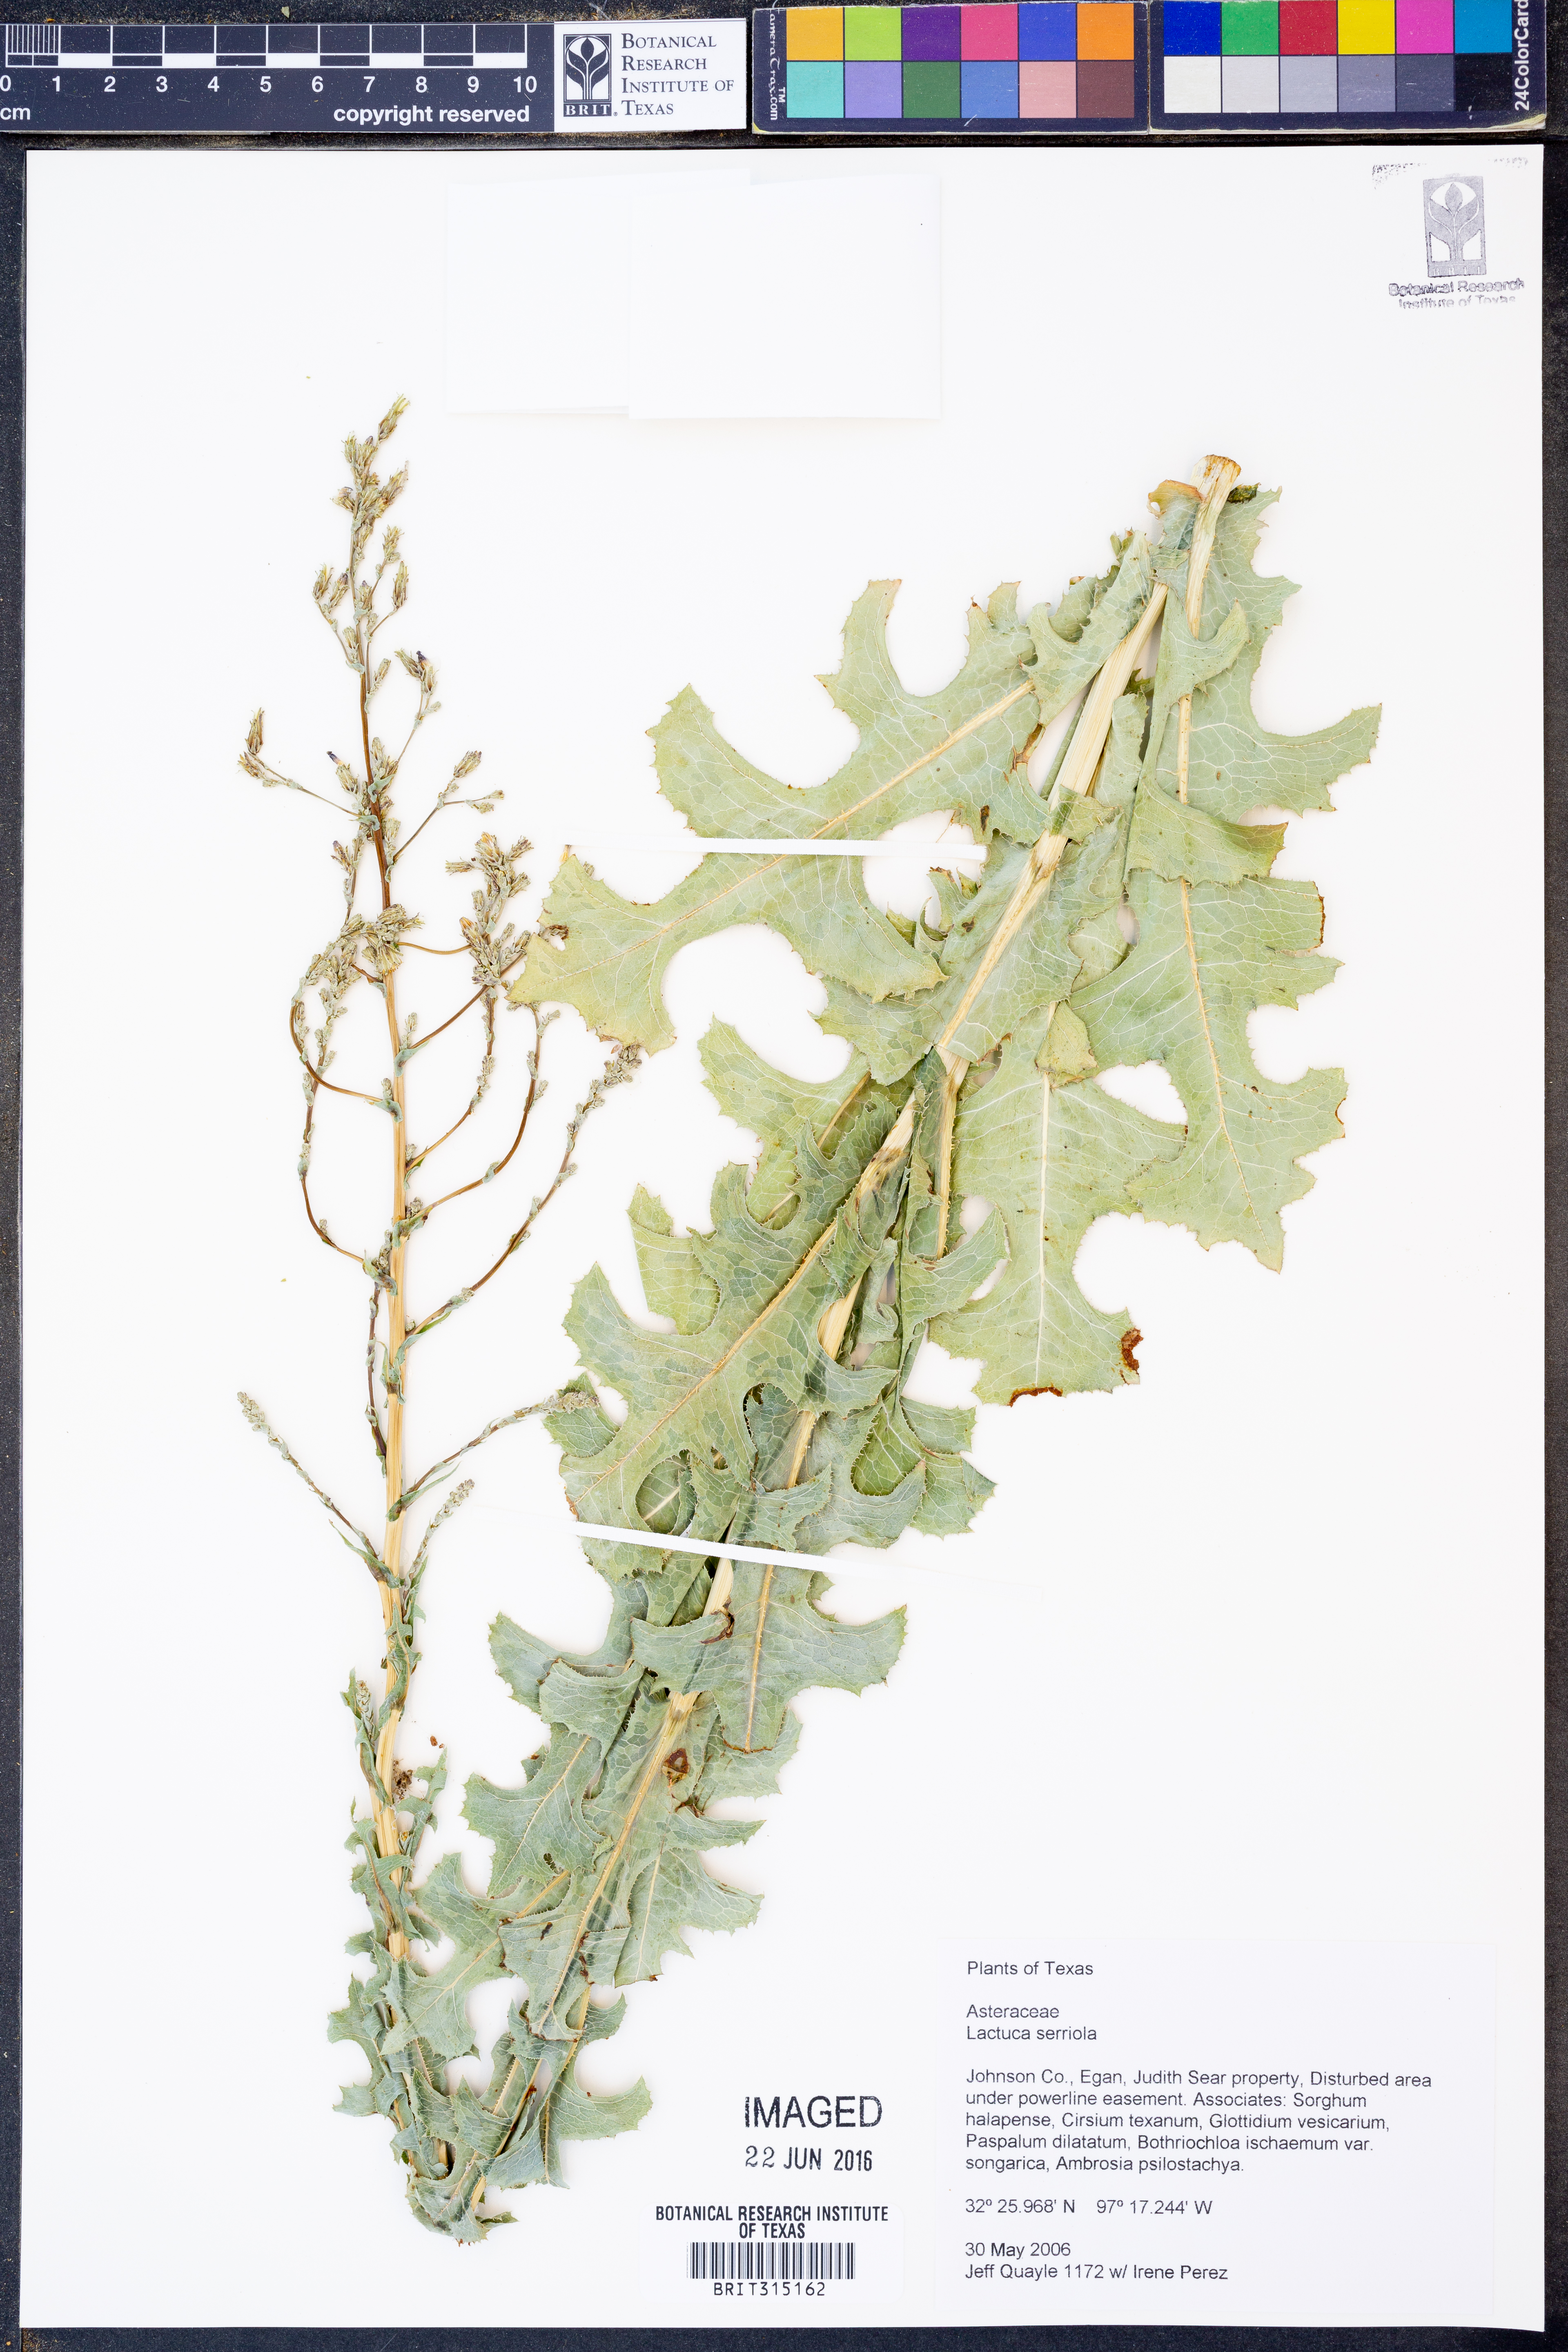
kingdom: Plantae
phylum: Tracheophyta
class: Magnoliopsida
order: Asterales
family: Asteraceae
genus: Lactuca
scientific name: Lactuca serriola
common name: Prickly lettuce
